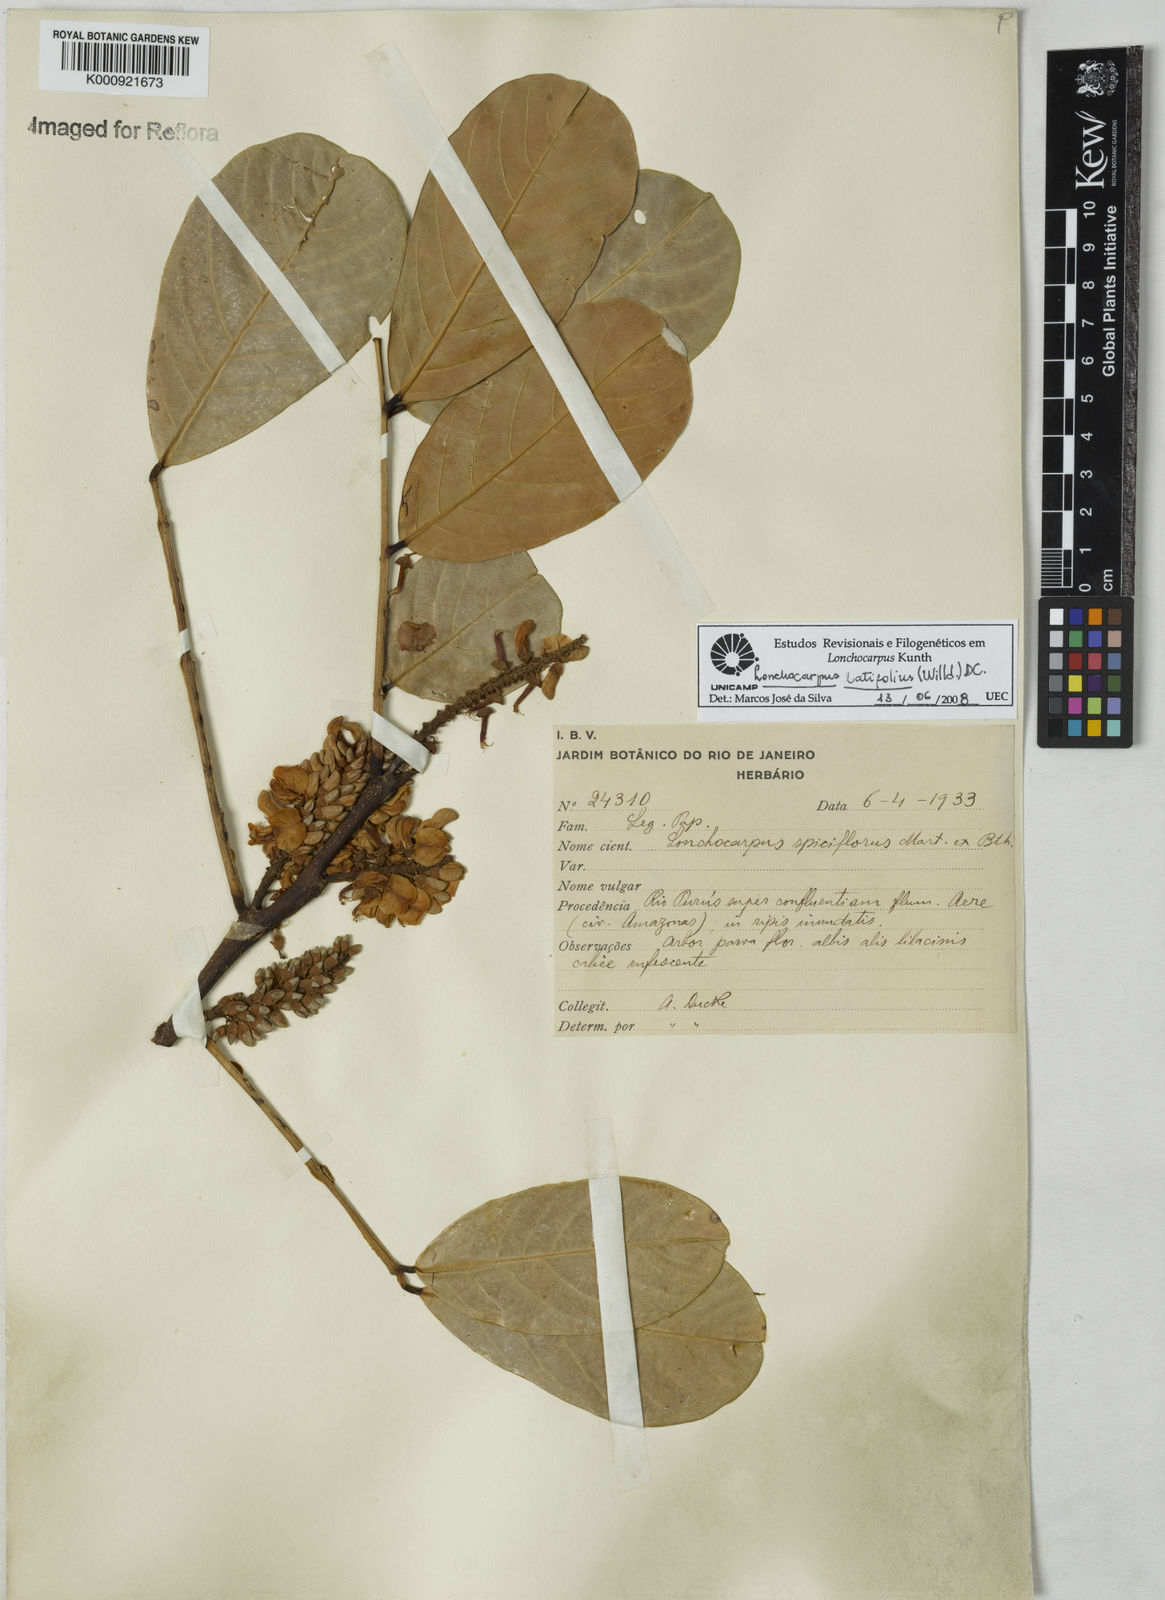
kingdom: Plantae
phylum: Tracheophyta
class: Magnoliopsida
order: Fabales
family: Fabaceae
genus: Lonchocarpus
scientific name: Lonchocarpus
